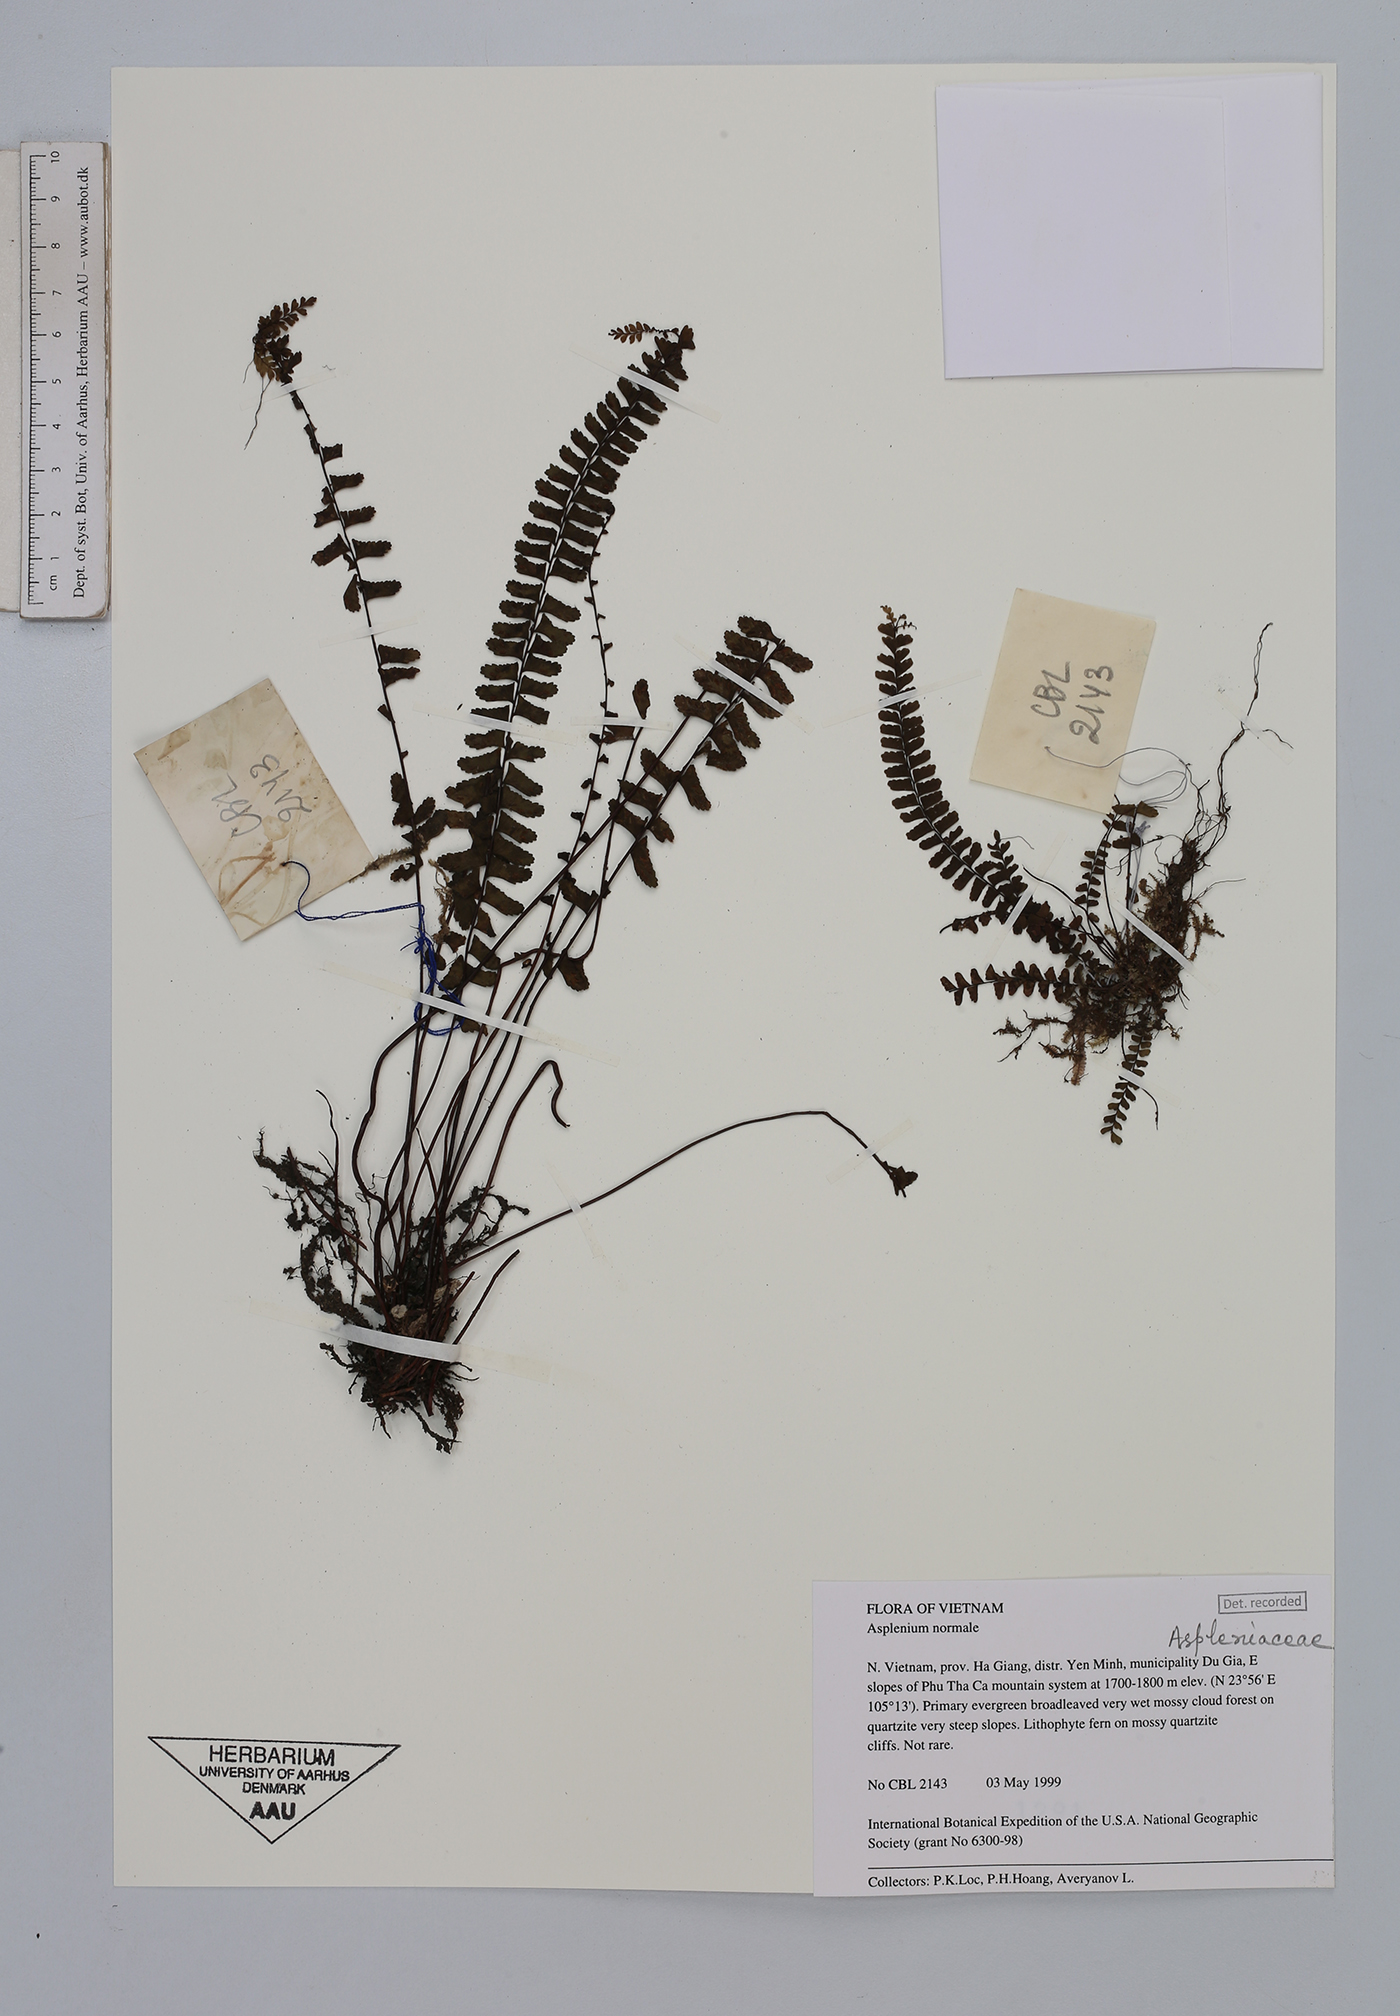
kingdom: Plantae
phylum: Tracheophyta
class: Polypodiopsida
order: Polypodiales
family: Aspleniaceae
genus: Asplenium
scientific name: Asplenium normale
